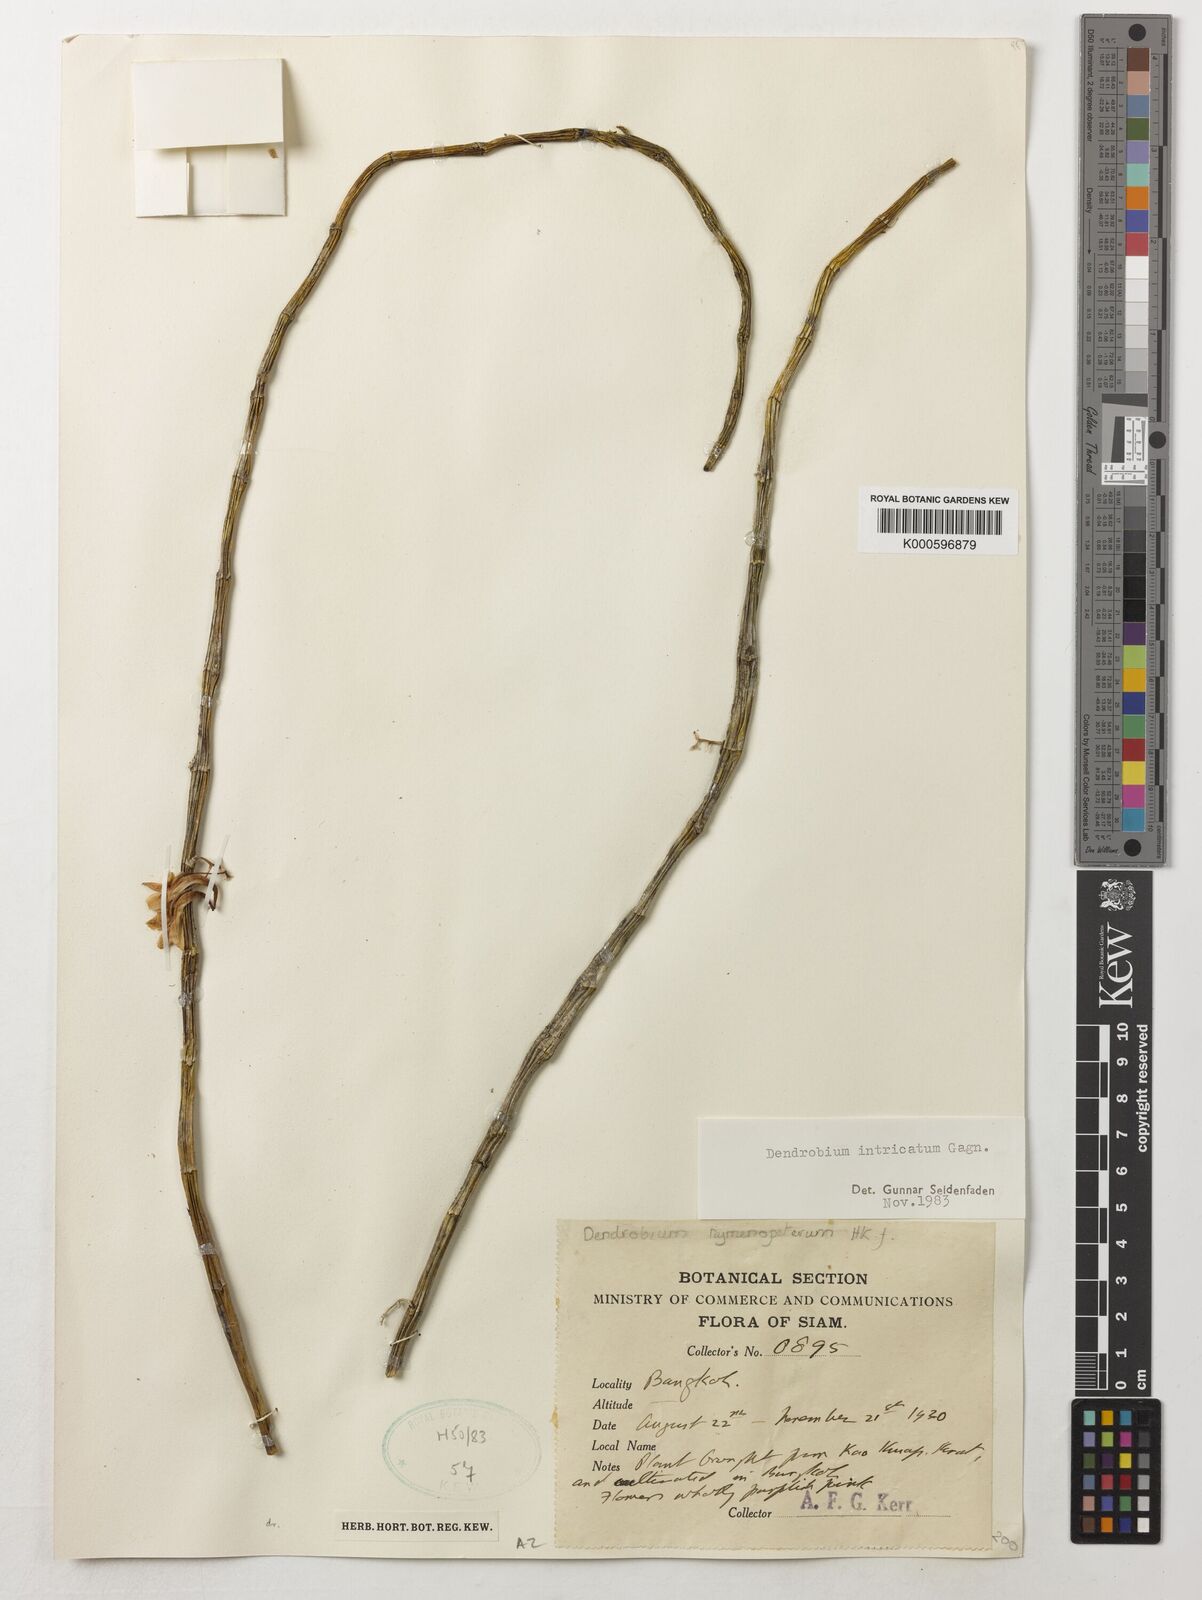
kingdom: Plantae
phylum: Tracheophyta
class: Liliopsida
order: Asparagales
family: Orchidaceae
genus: Dendrobium
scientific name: Dendrobium intricatum
